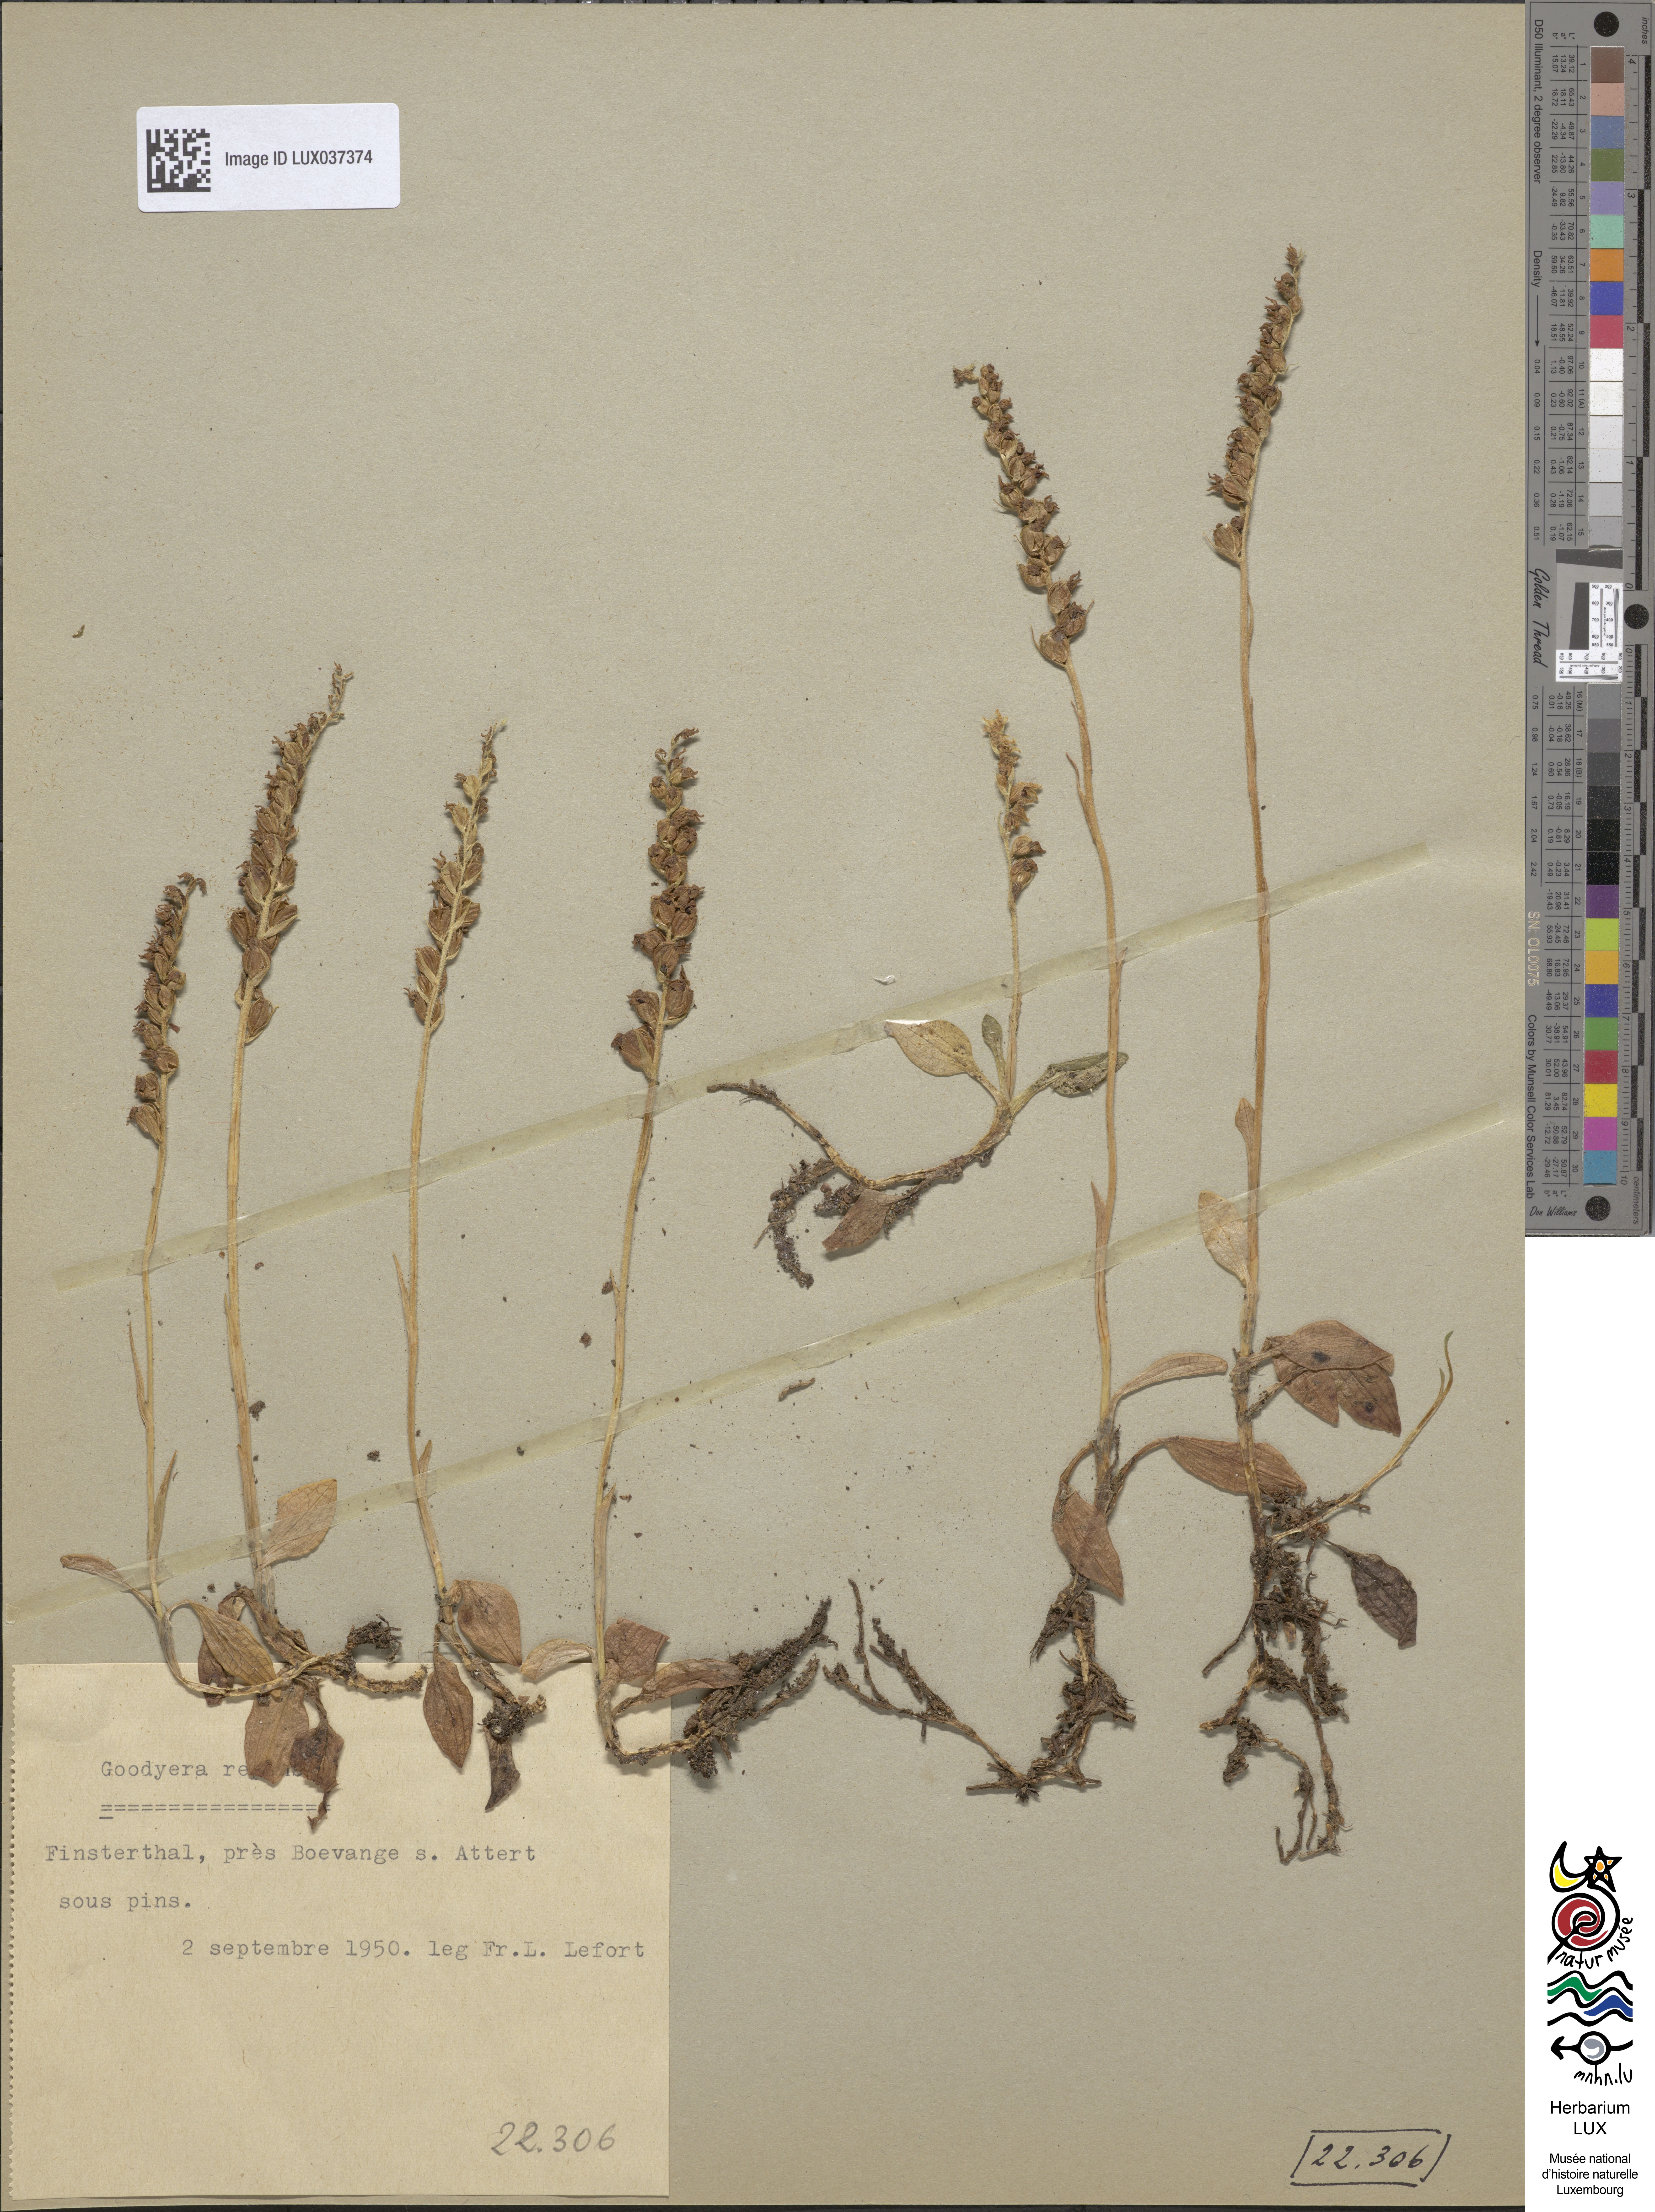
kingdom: Plantae
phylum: Tracheophyta
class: Liliopsida
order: Asparagales
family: Orchidaceae
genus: Goodyera
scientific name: Goodyera repens
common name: Creeping lady's-tresses
